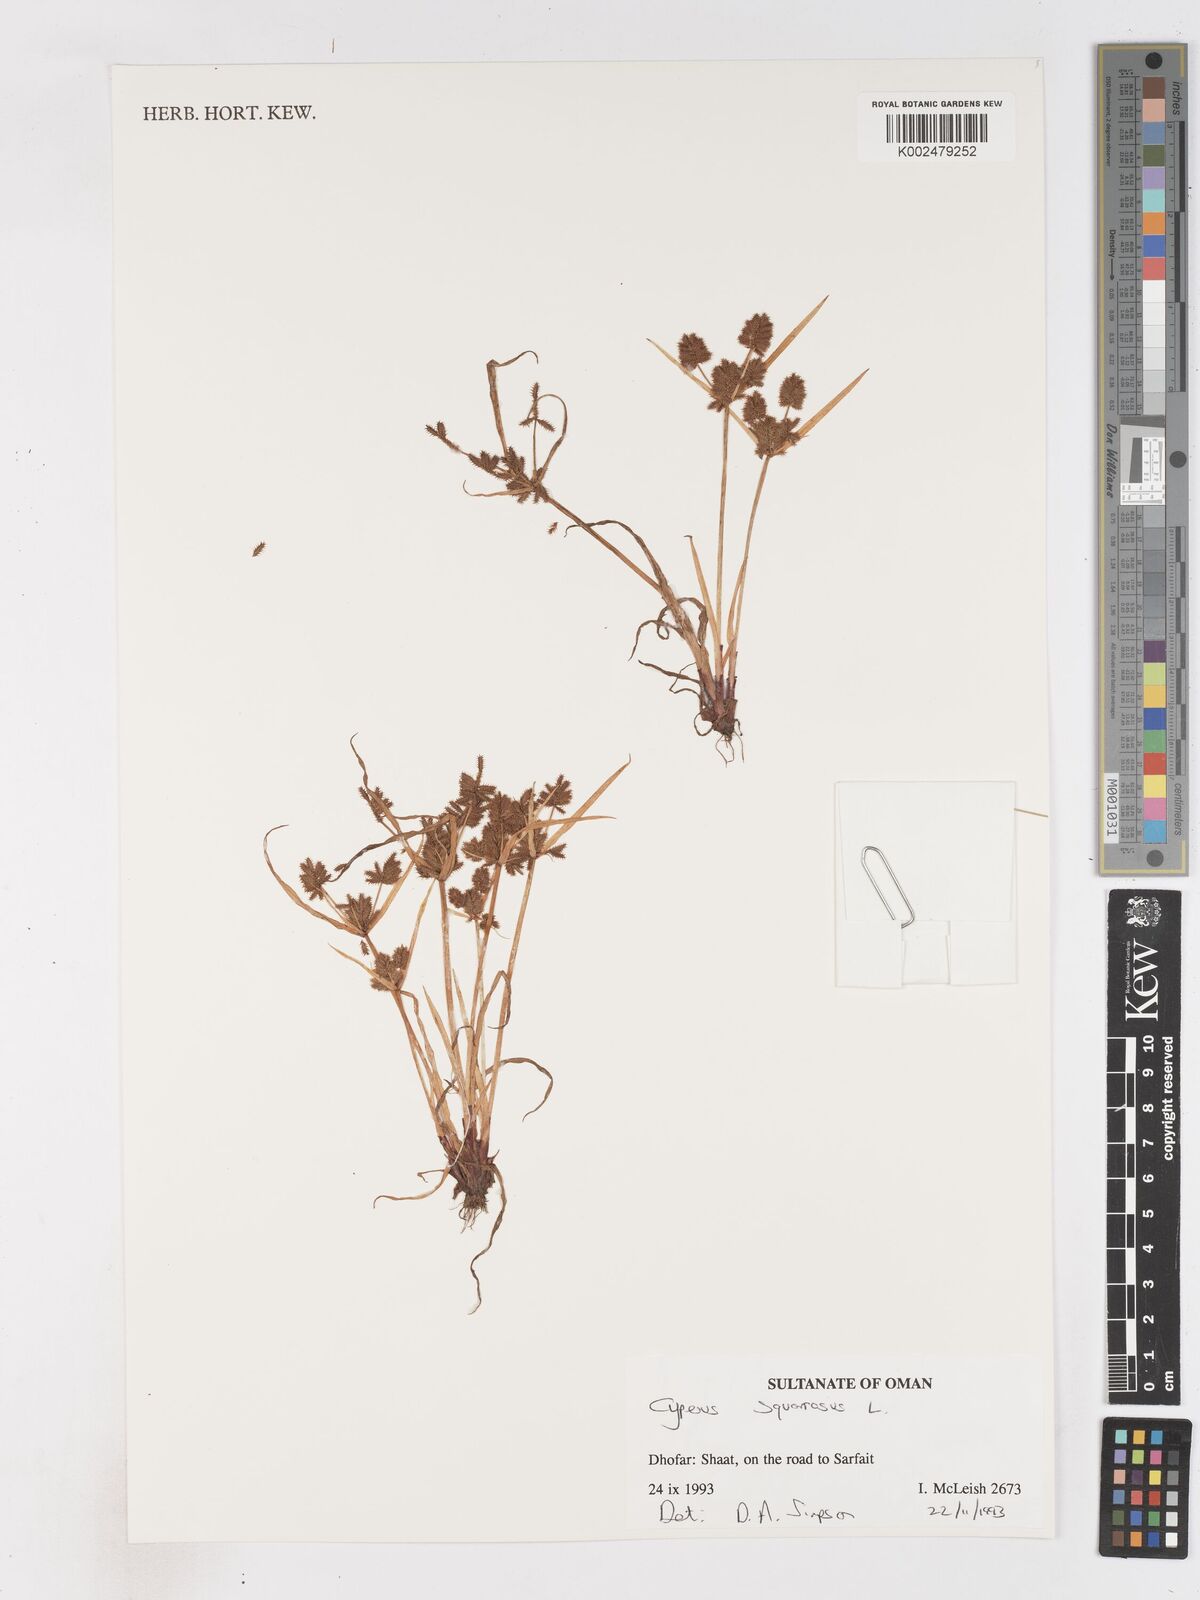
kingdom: Plantae
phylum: Tracheophyta
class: Liliopsida
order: Poales
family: Cyperaceae
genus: Cyperus
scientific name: Cyperus squarrosus
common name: Awned cyperus
